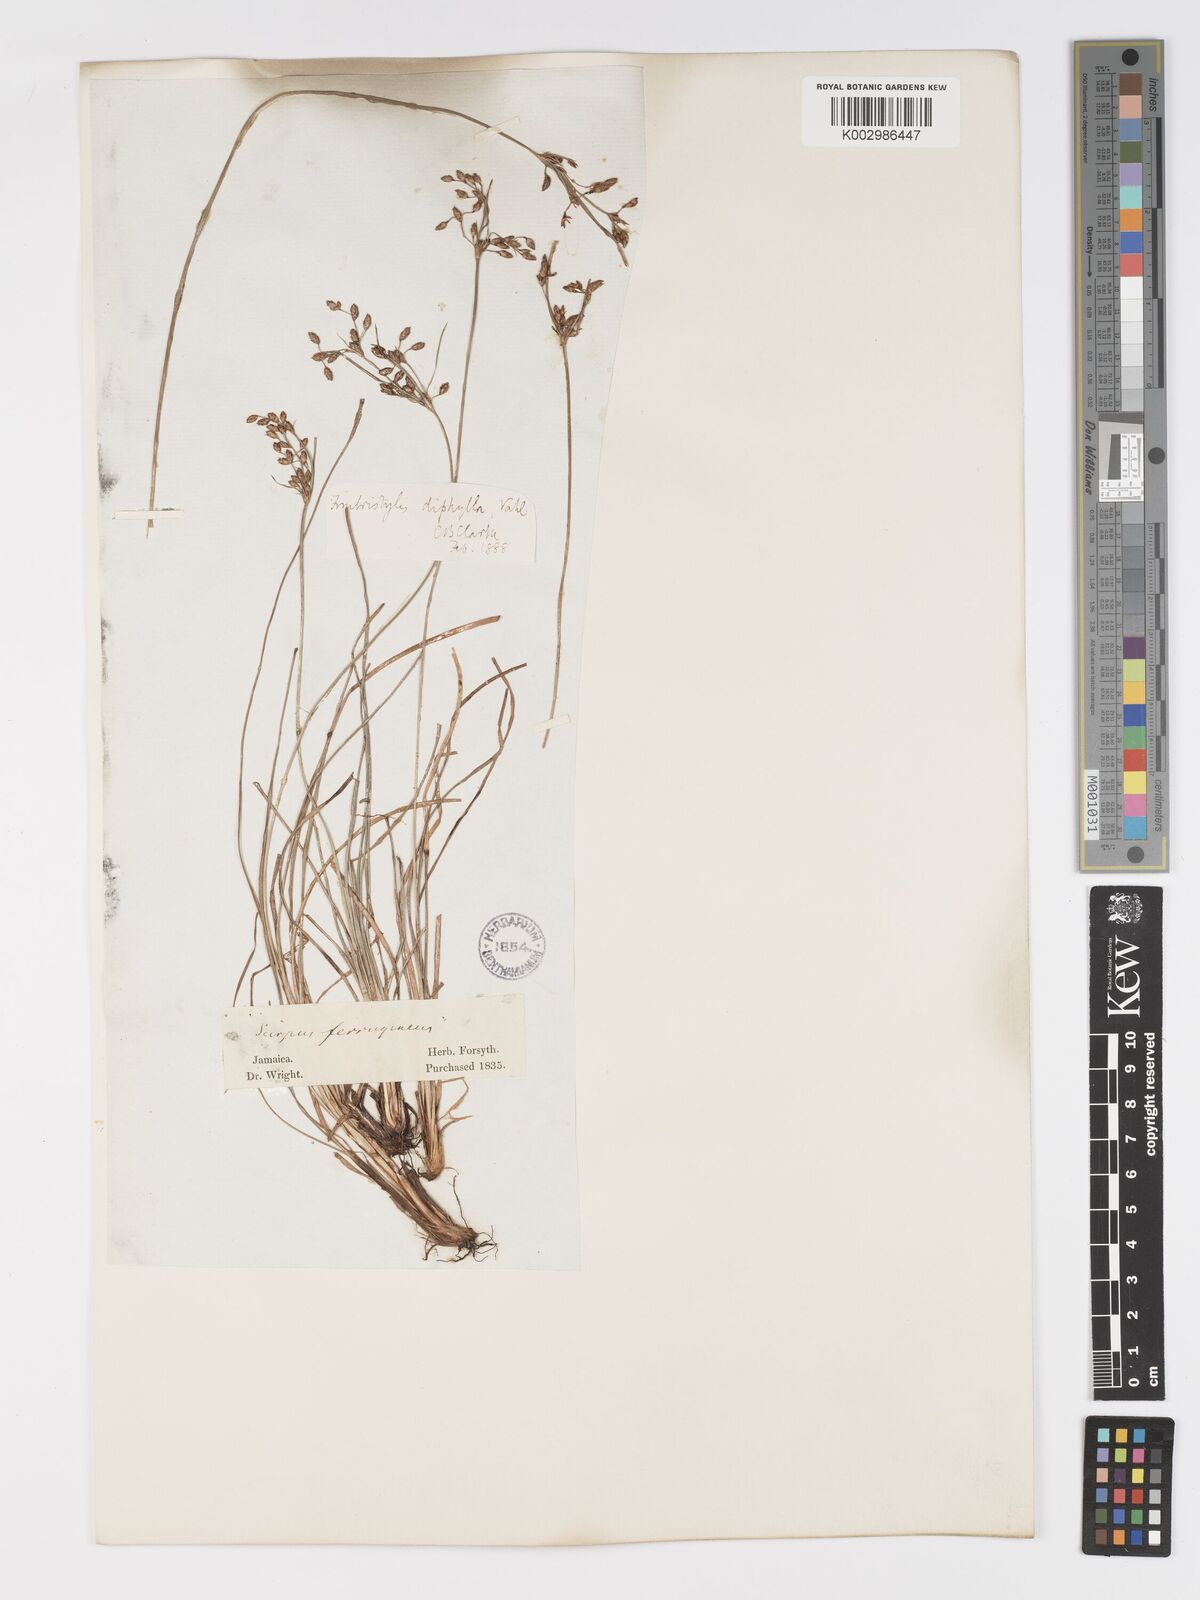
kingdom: Plantae
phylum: Tracheophyta
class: Liliopsida
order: Poales
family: Cyperaceae
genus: Fimbristylis
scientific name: Fimbristylis dichotoma
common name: Forked fimbry
